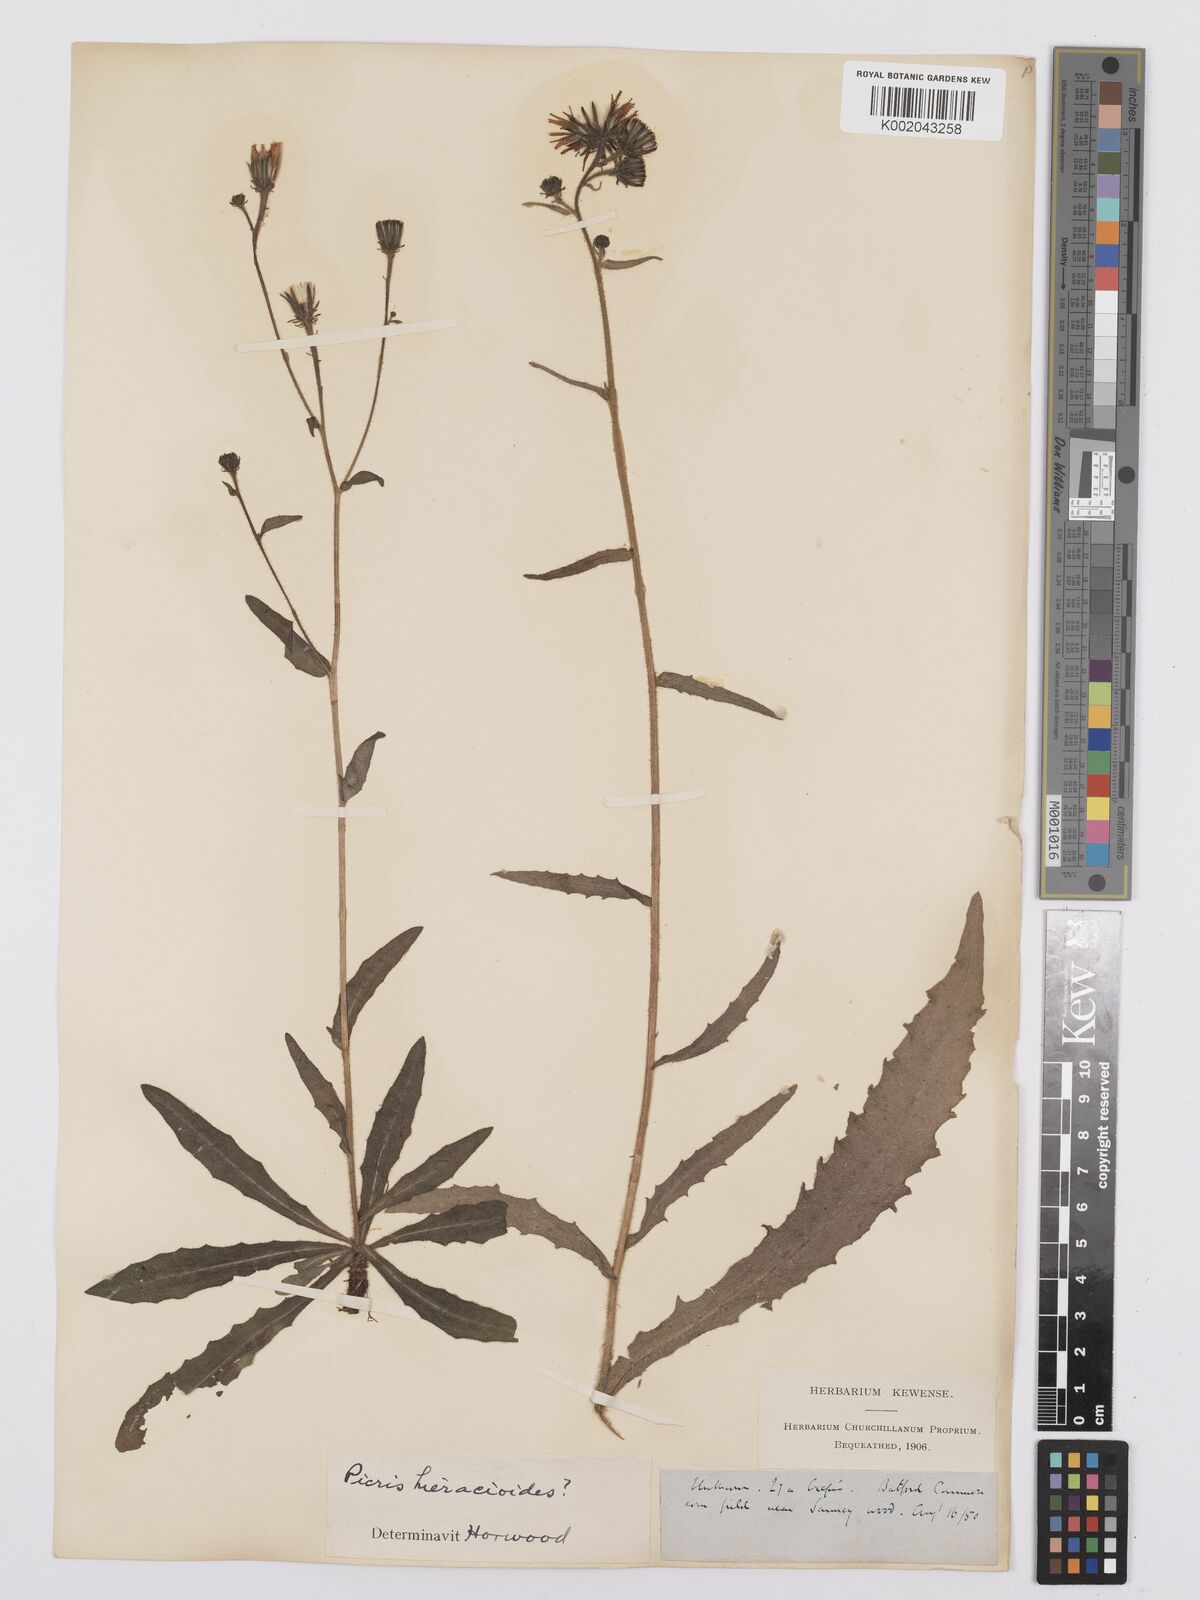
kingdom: Plantae
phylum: Tracheophyta
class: Magnoliopsida
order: Asterales
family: Asteraceae
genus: Picris
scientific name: Picris hieracioides
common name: Hawkweed oxtongue
